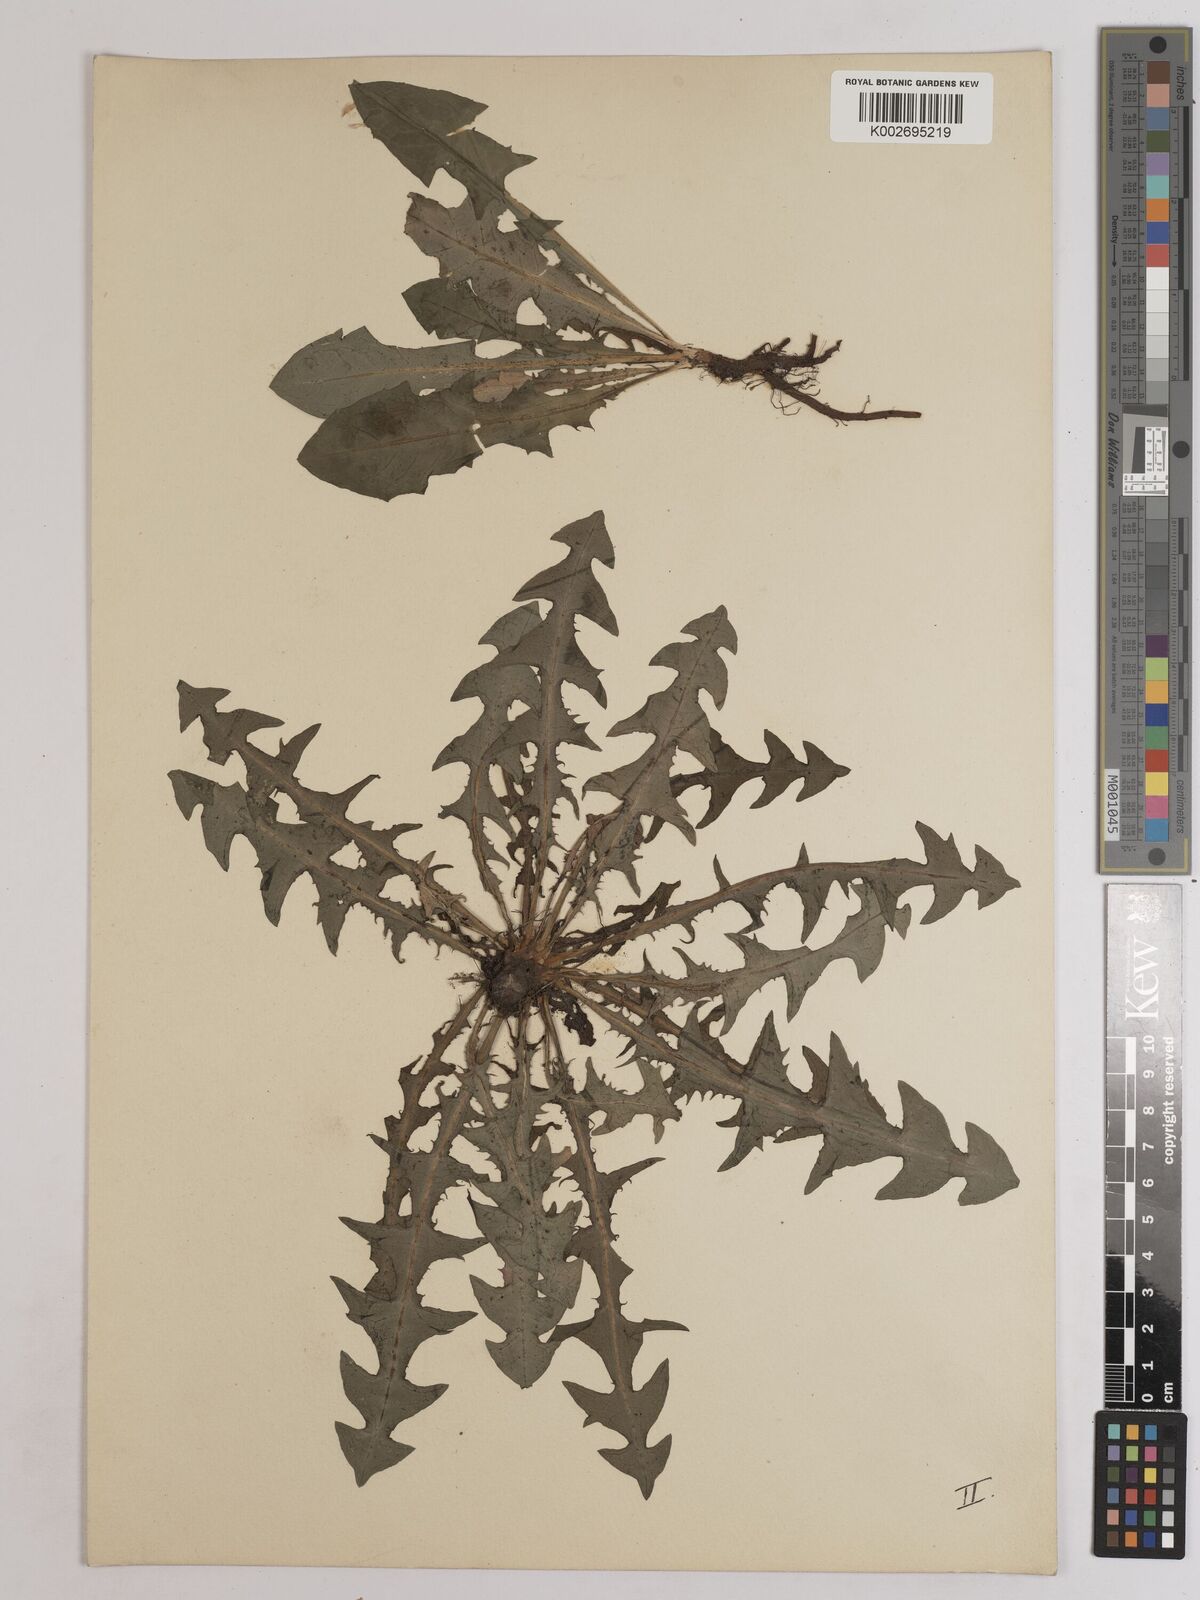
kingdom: Plantae
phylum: Tracheophyta
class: Magnoliopsida
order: Asterales
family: Asteraceae
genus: Taraxacum
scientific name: Taraxacum officinale
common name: Common dandelion
